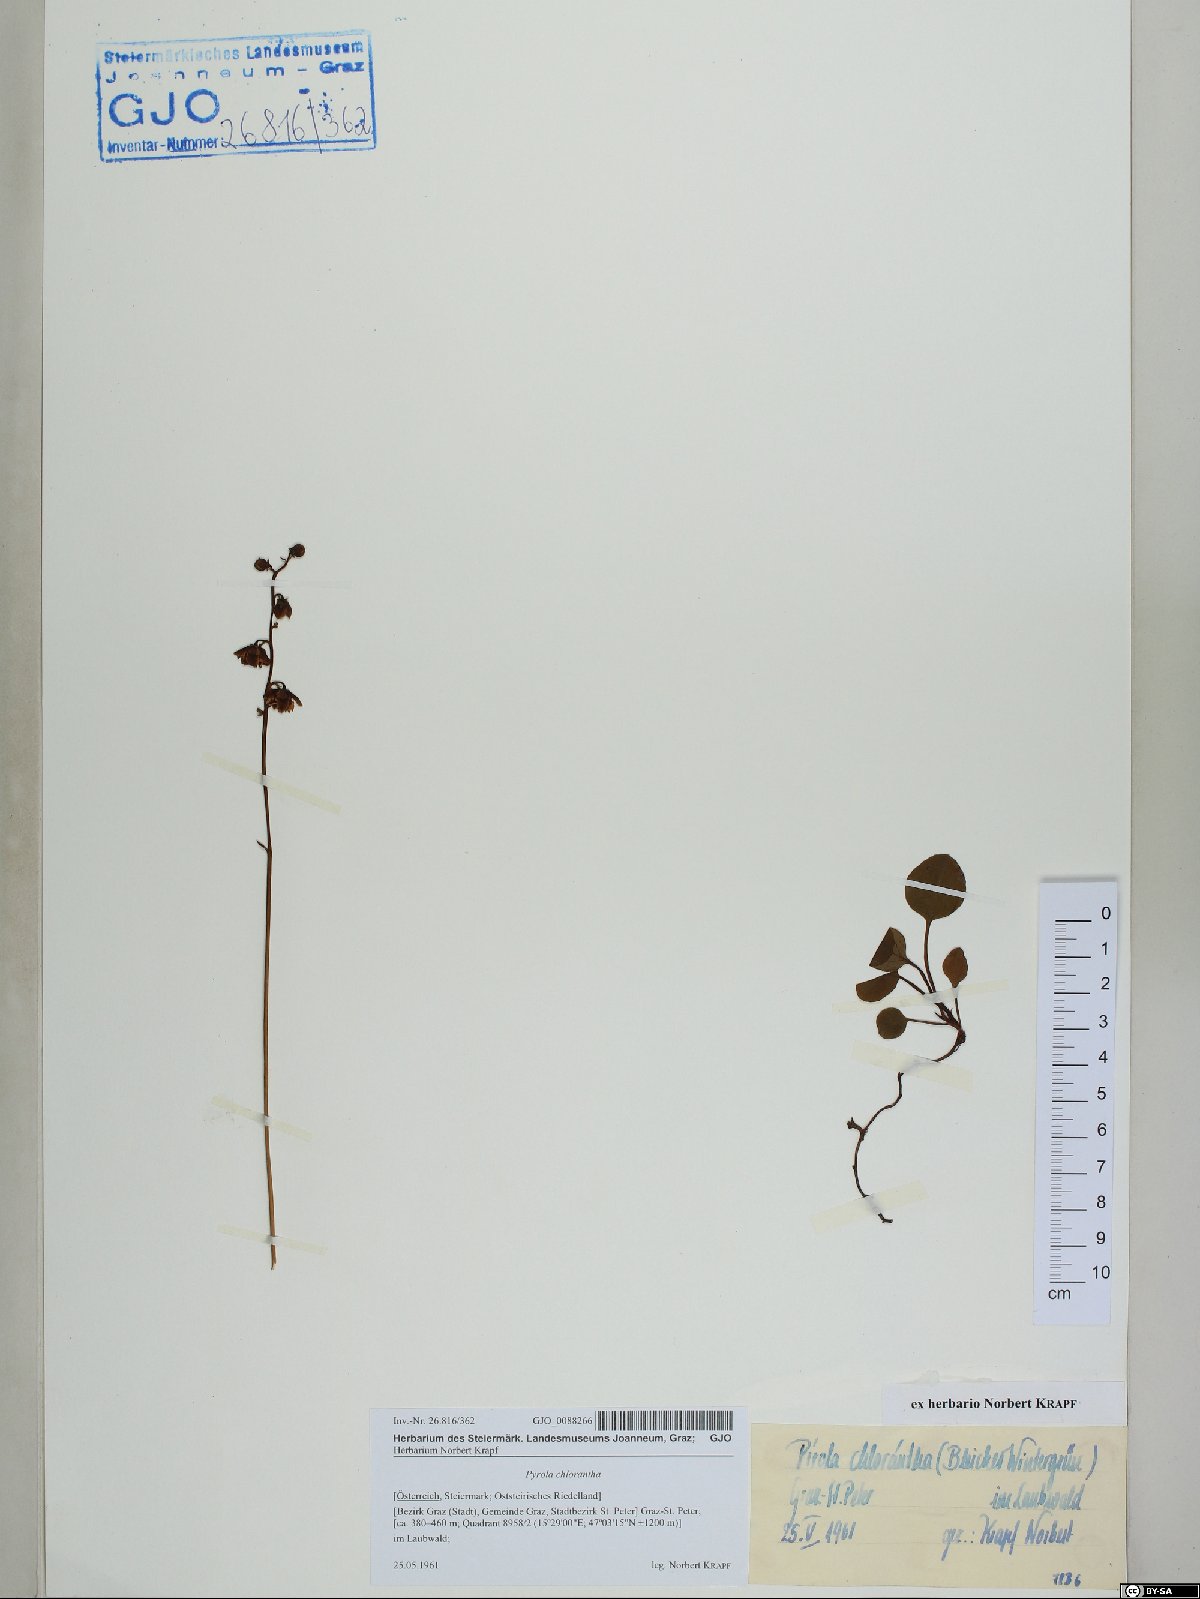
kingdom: Plantae
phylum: Tracheophyta
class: Magnoliopsida
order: Ericales
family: Ericaceae
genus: Pyrola
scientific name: Pyrola chlorantha
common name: Green wintergreen
